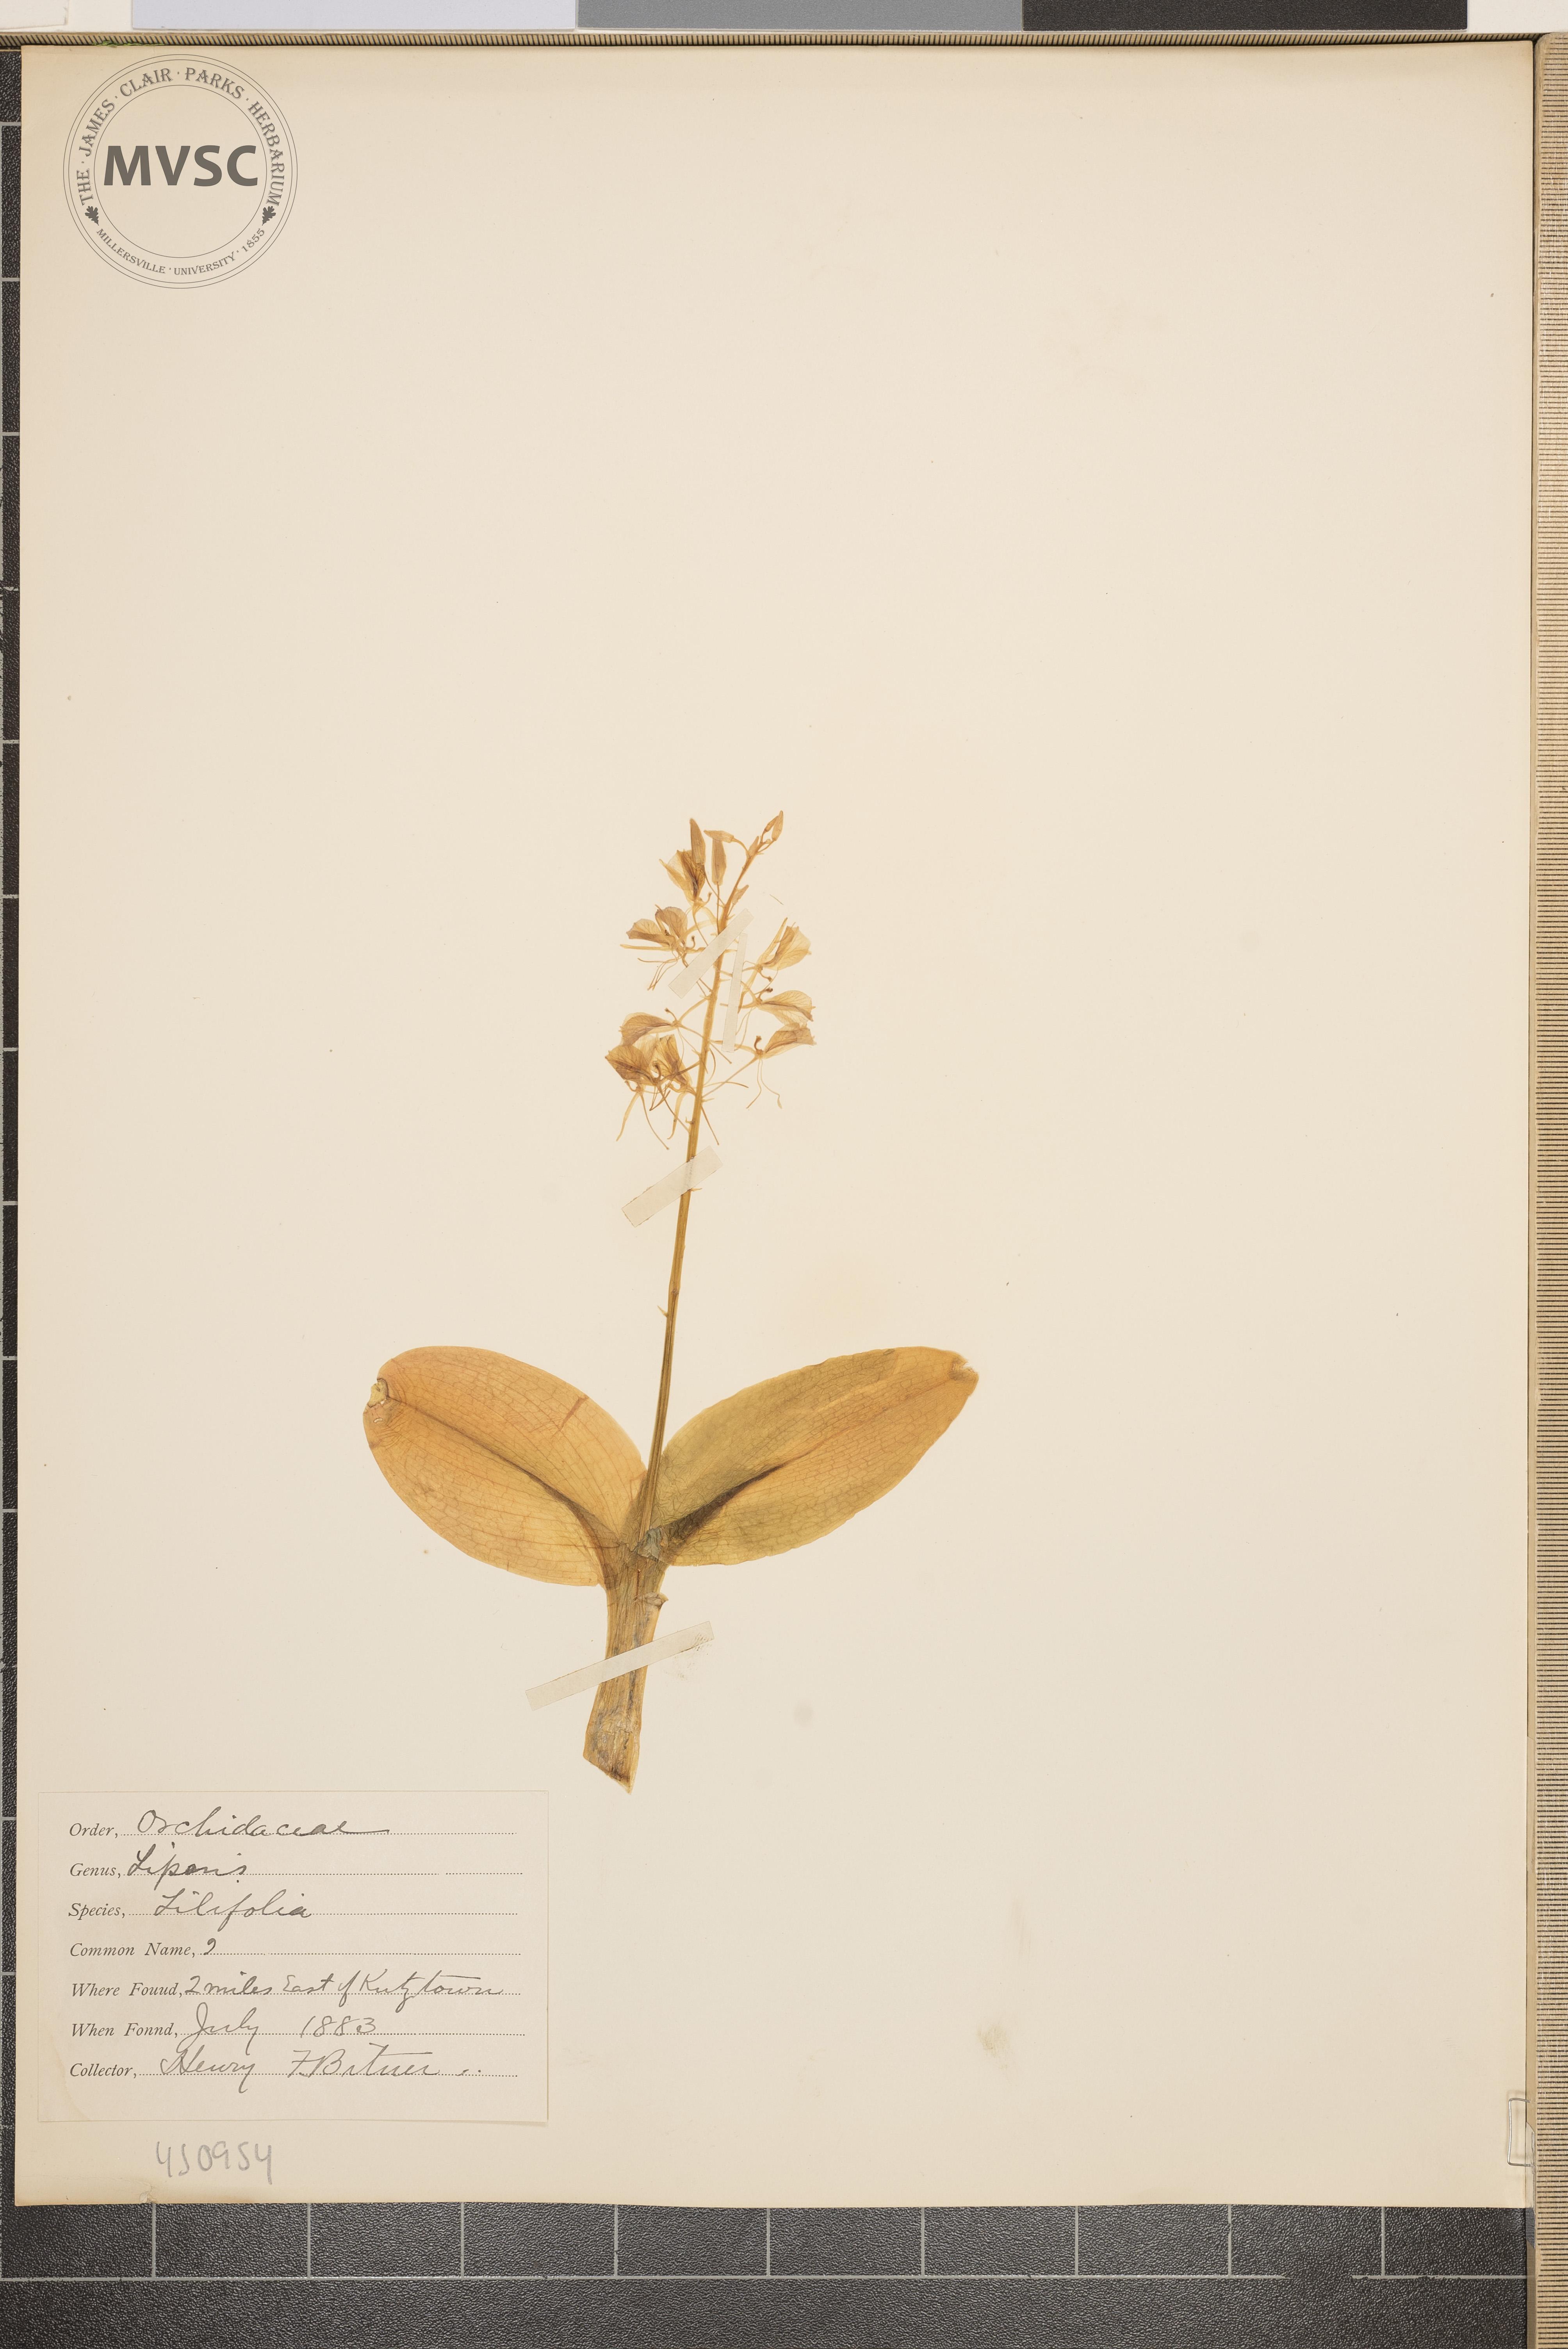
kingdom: Plantae
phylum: Tracheophyta
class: Liliopsida
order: Asparagales
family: Orchidaceae
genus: Liparis
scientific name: Liparis liliifolia
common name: Brown wide-lip orchid
